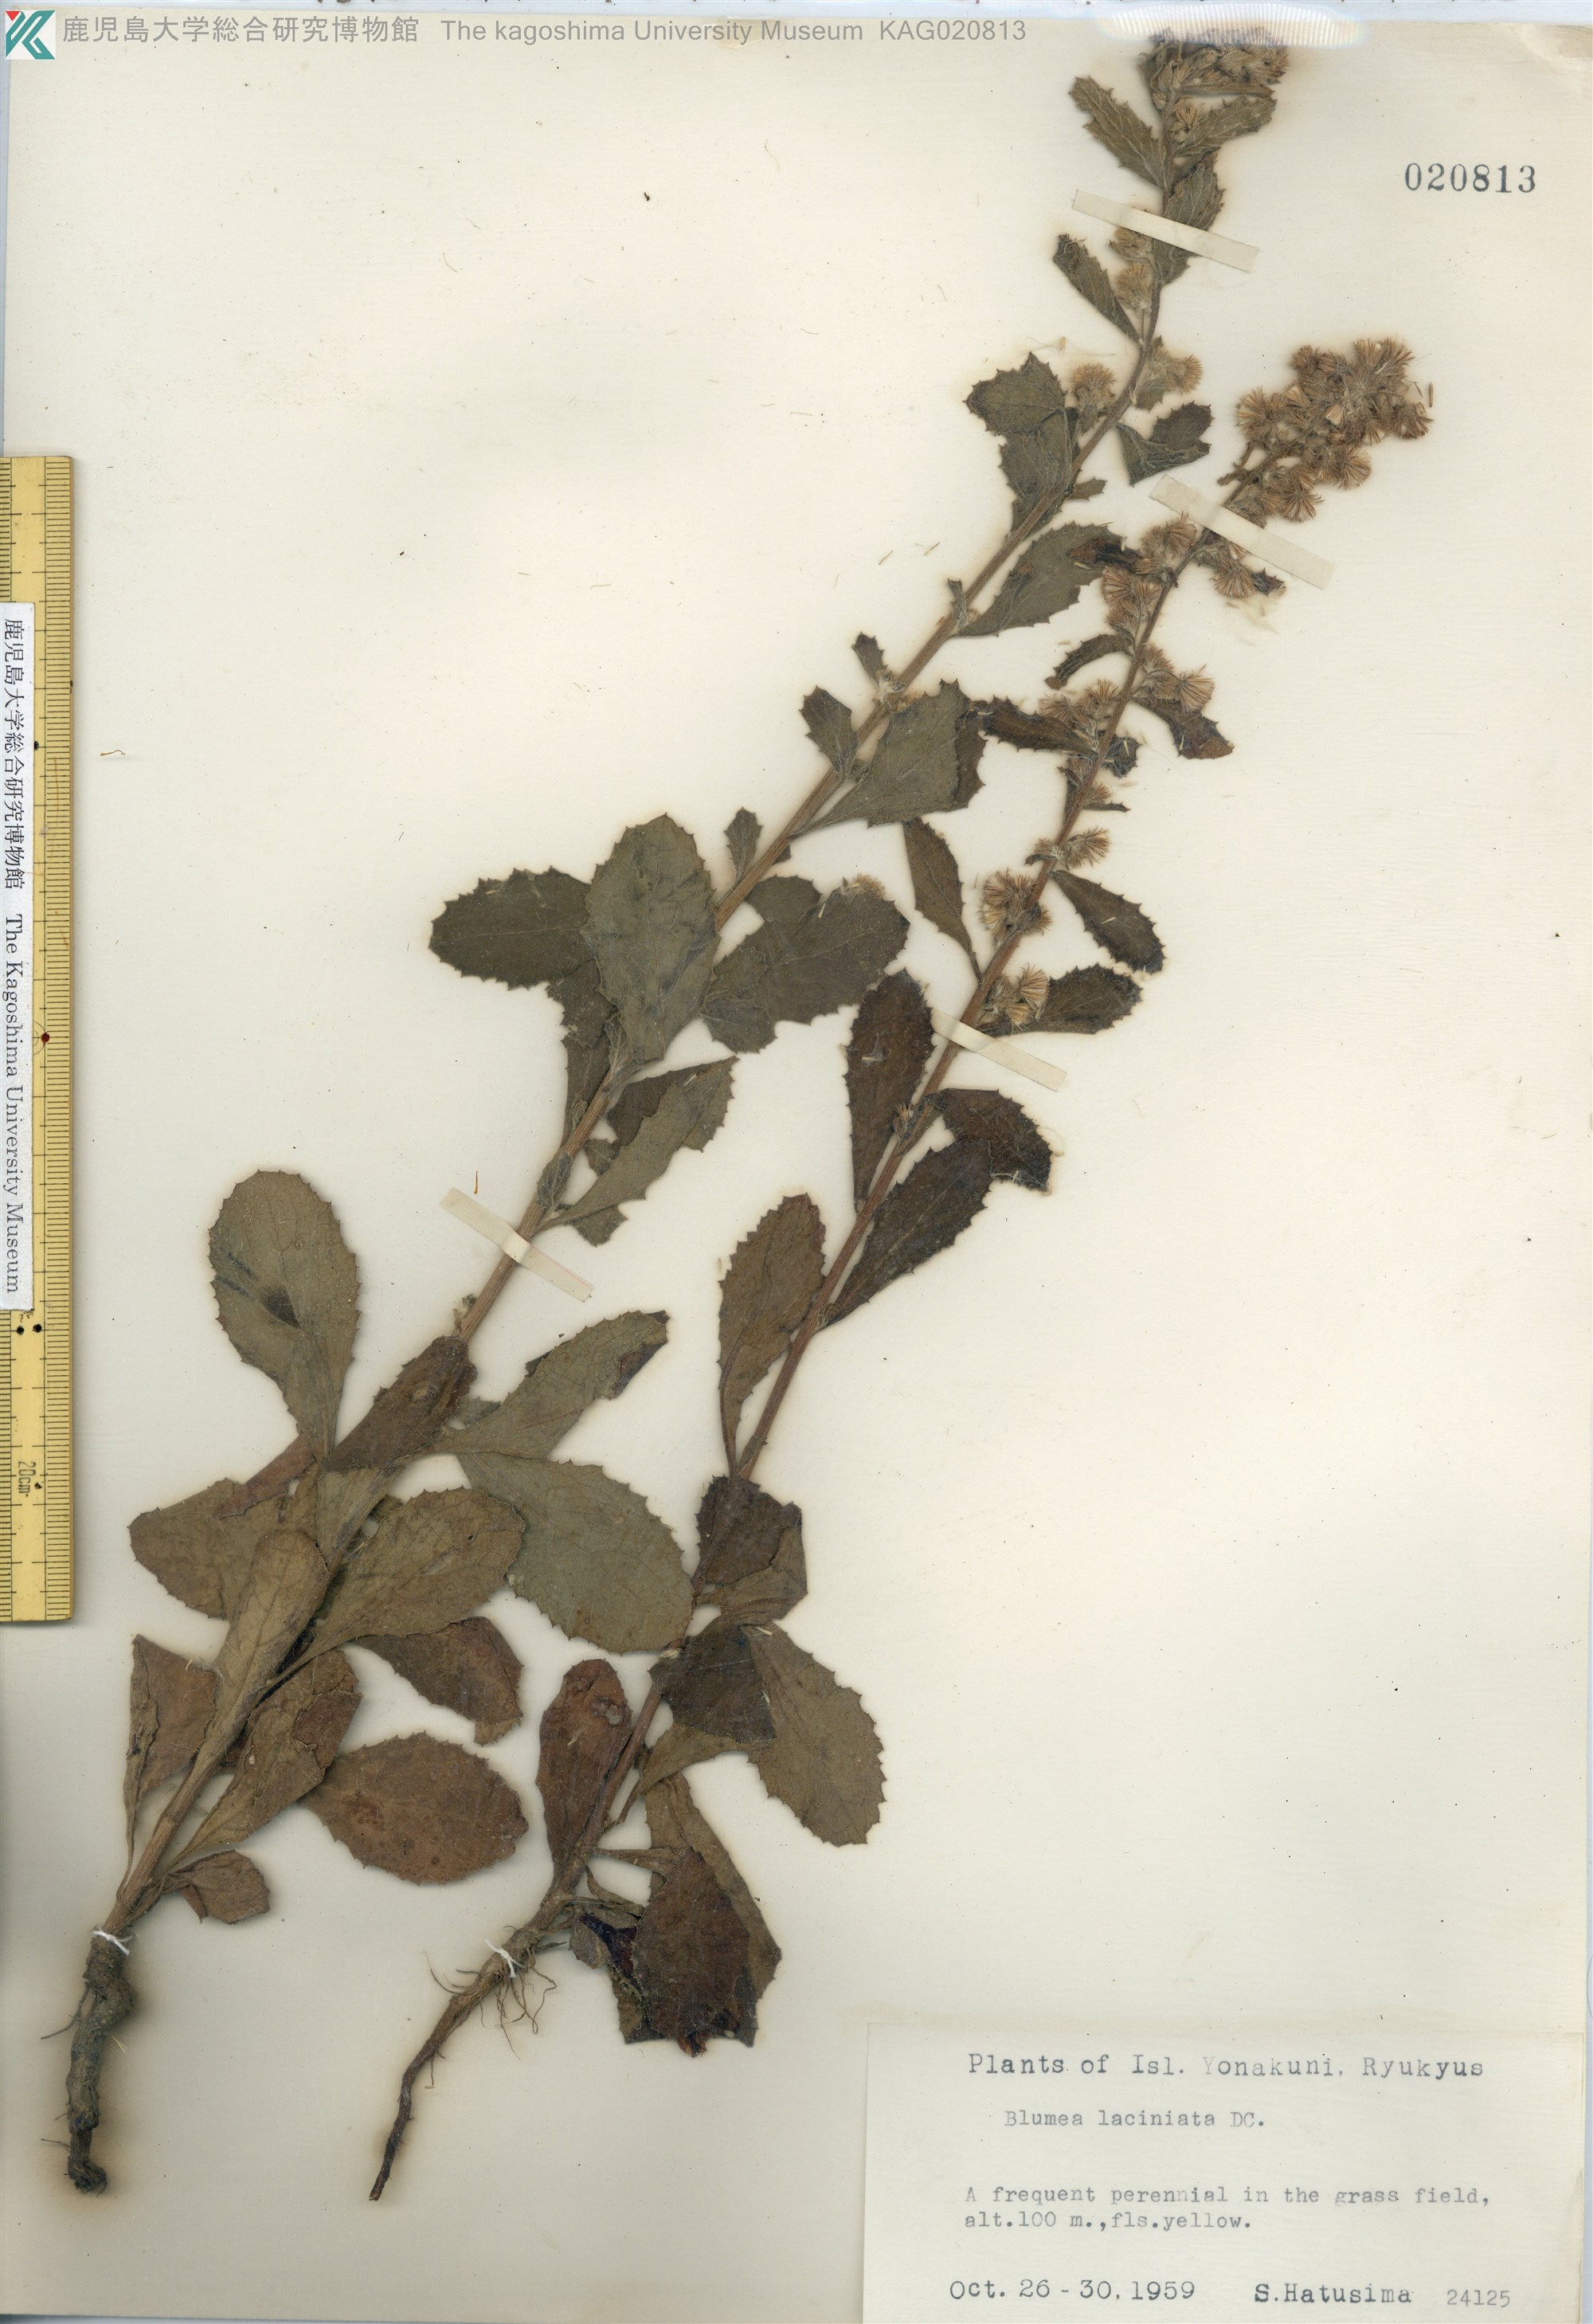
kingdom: Plantae
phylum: Tracheophyta
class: Magnoliopsida
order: Asterales
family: Asteraceae
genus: Blumea
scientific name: Blumea lacera
